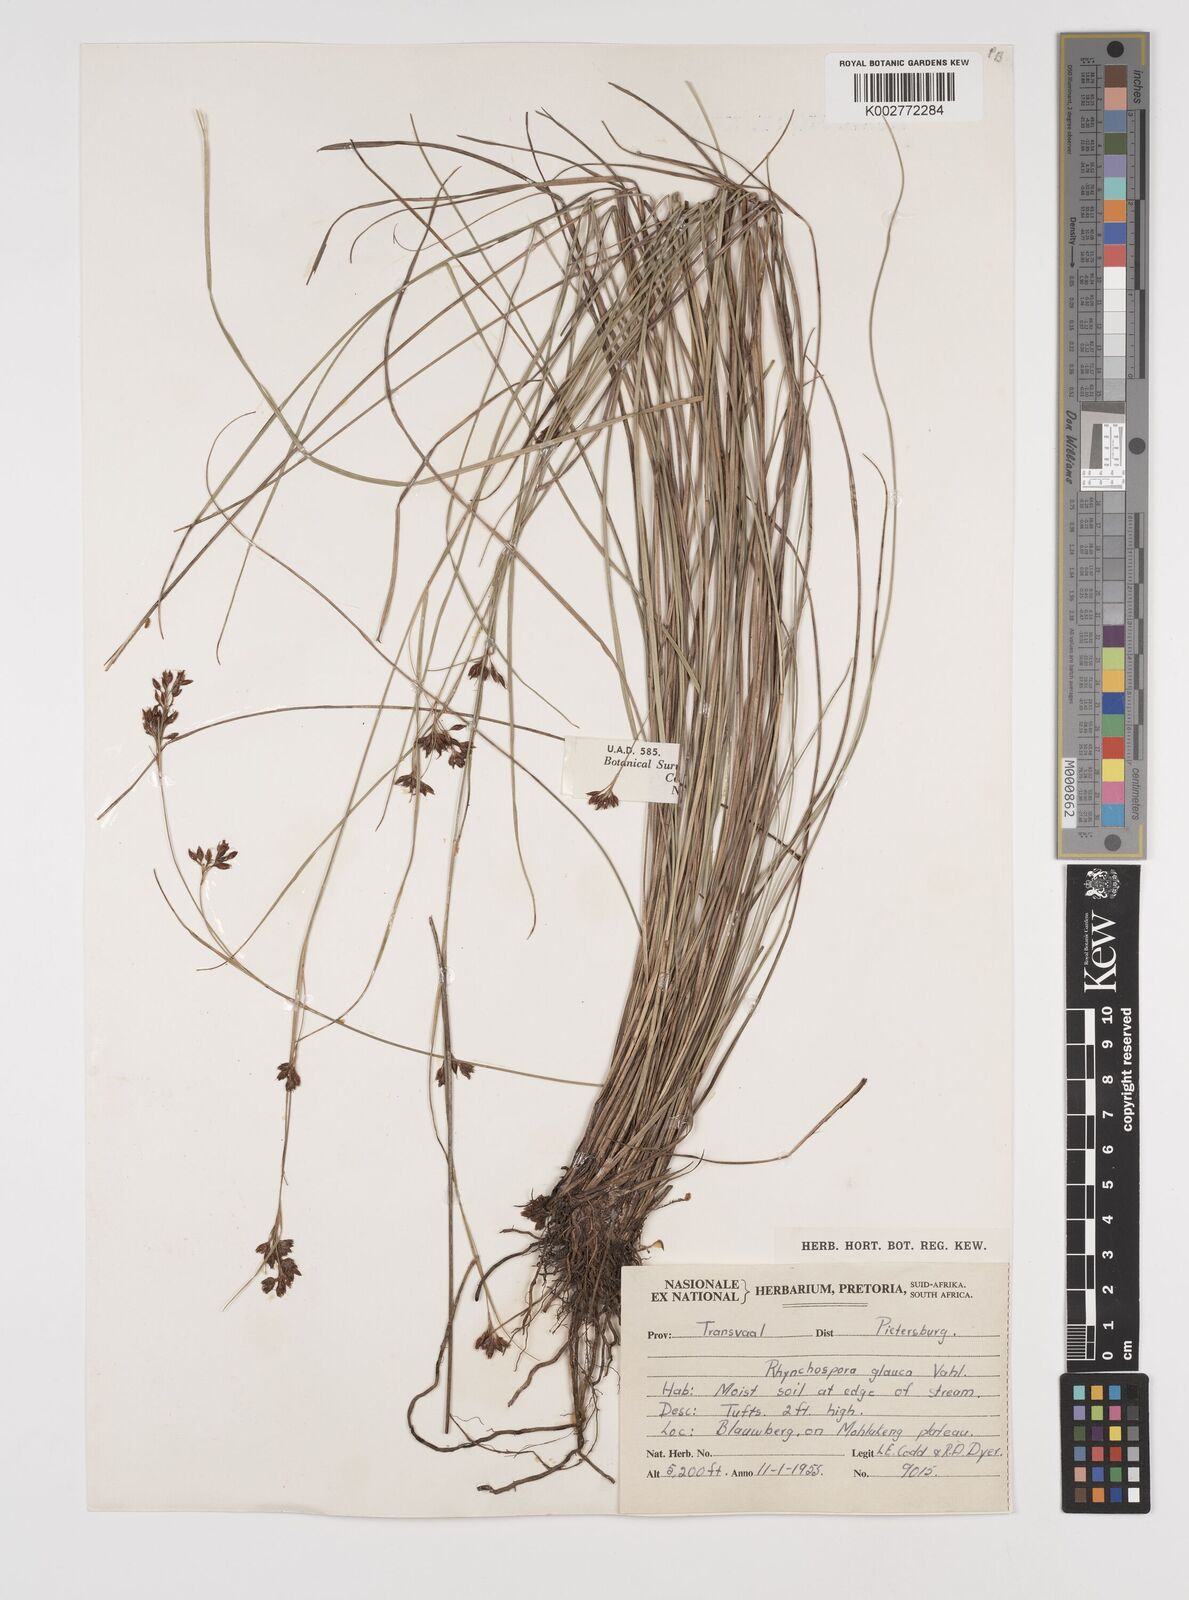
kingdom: Plantae
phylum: Tracheophyta
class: Liliopsida
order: Poales
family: Cyperaceae
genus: Rhynchospora
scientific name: Rhynchospora rugosa
